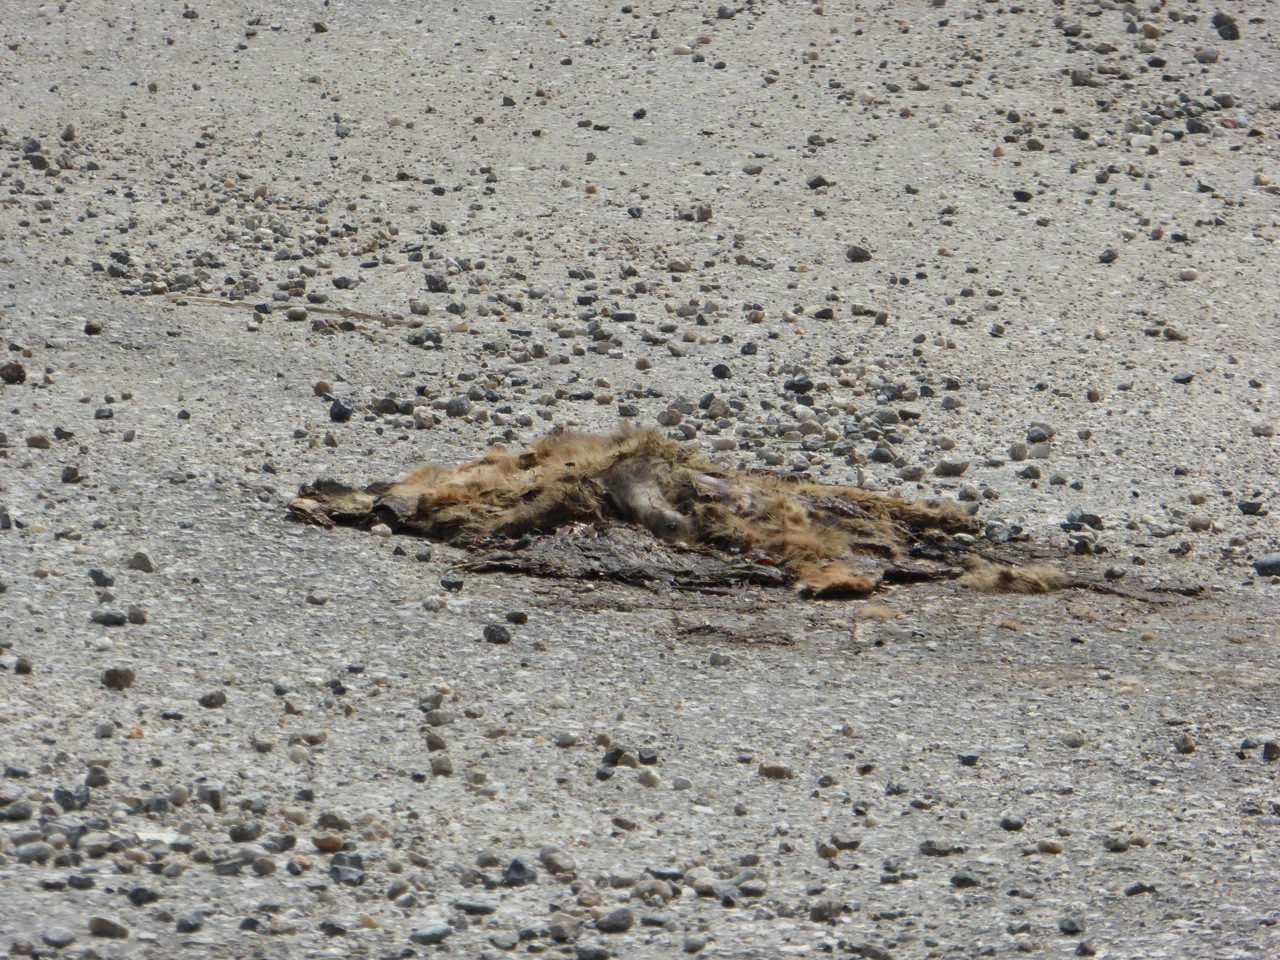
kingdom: Animalia
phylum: Chordata
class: Mammalia
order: Carnivora
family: Canidae
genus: Canis
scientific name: Canis lupus
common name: Gray wolf
